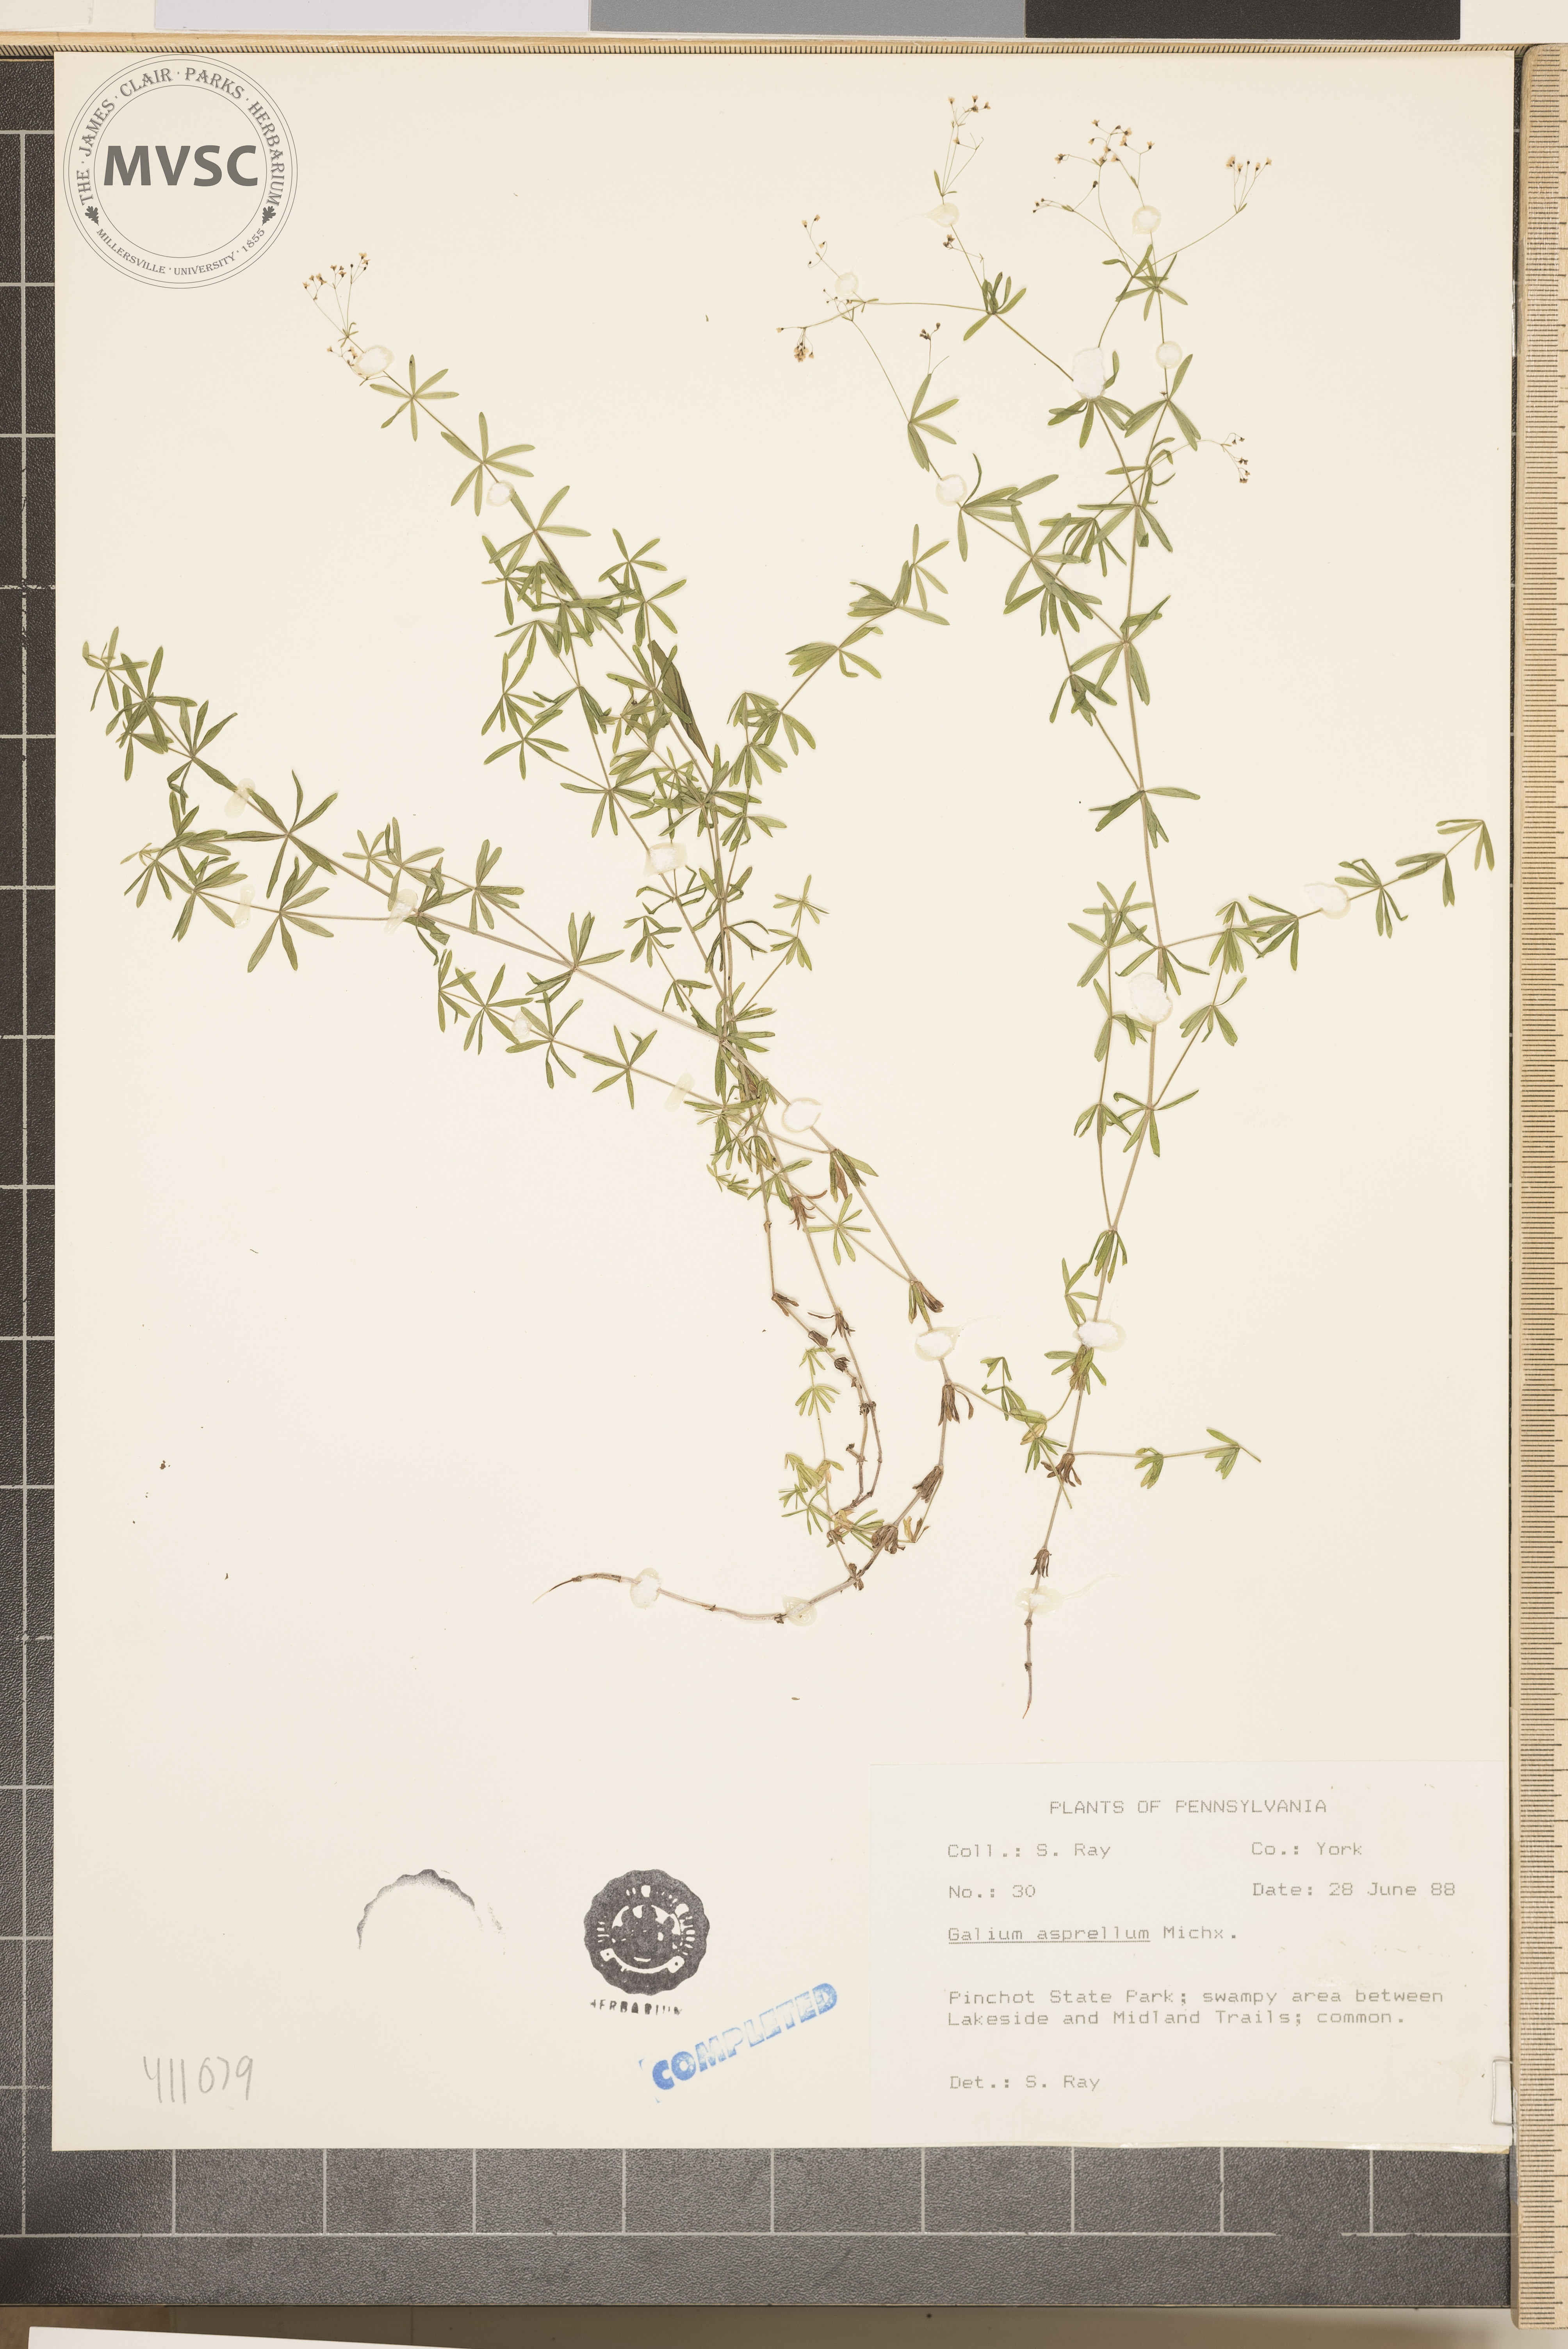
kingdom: Plantae
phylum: Tracheophyta
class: Magnoliopsida
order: Gentianales
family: Rubiaceae
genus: Galium
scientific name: Galium asprellum
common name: Rough bedstraw
